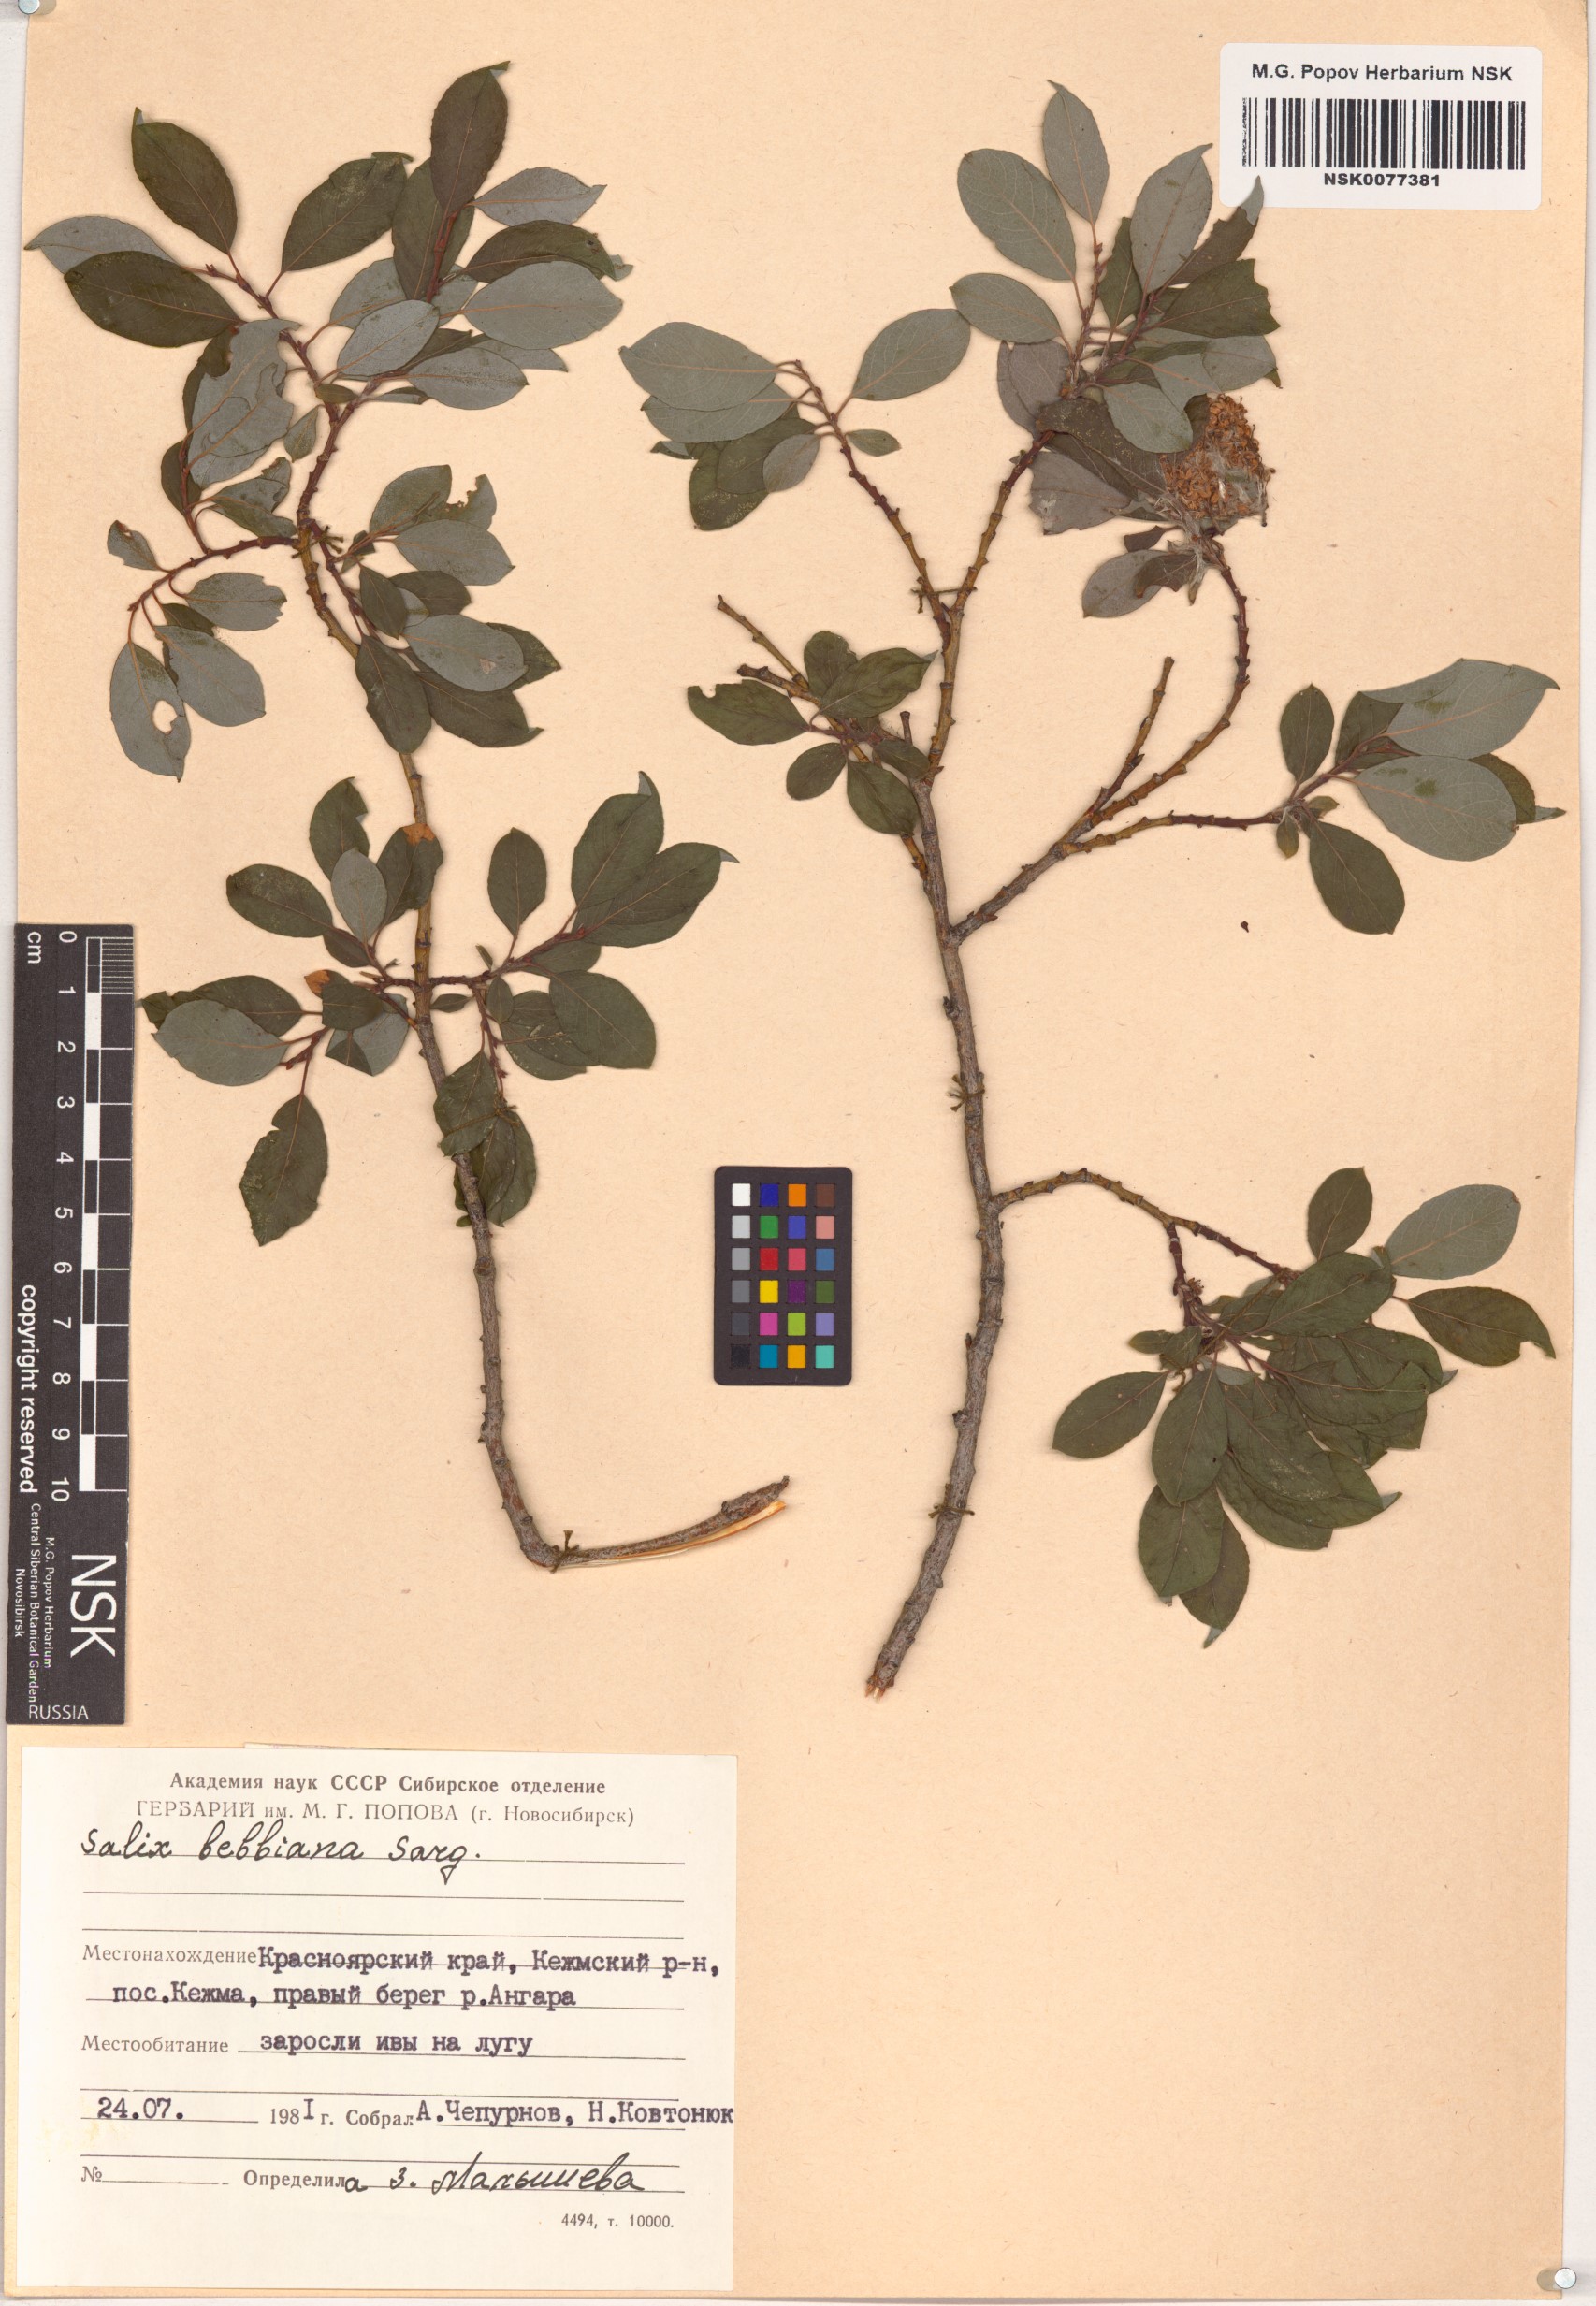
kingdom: Plantae
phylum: Tracheophyta
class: Magnoliopsida
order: Malpighiales
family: Salicaceae
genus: Salix
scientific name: Salix bebbiana
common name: Bebb's willow
